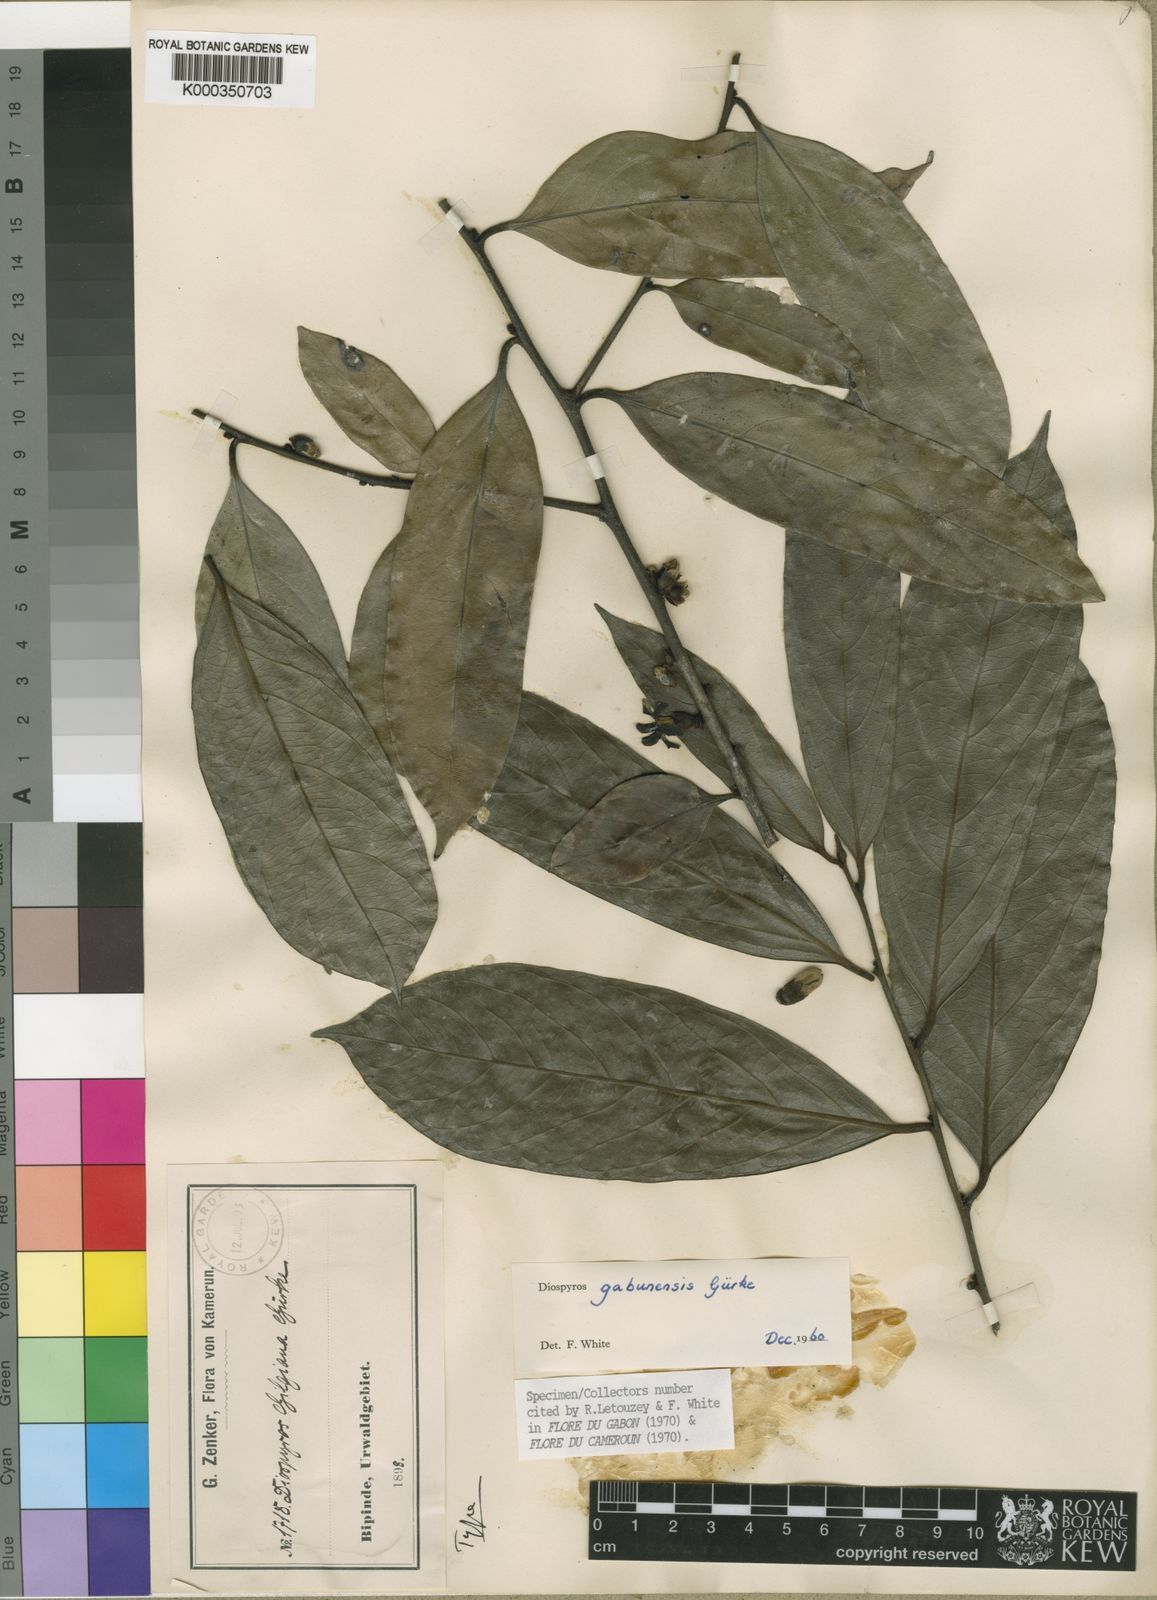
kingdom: Plantae
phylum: Tracheophyta
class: Magnoliopsida
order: Ericales
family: Ebenaceae
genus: Diospyros
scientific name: Diospyros
